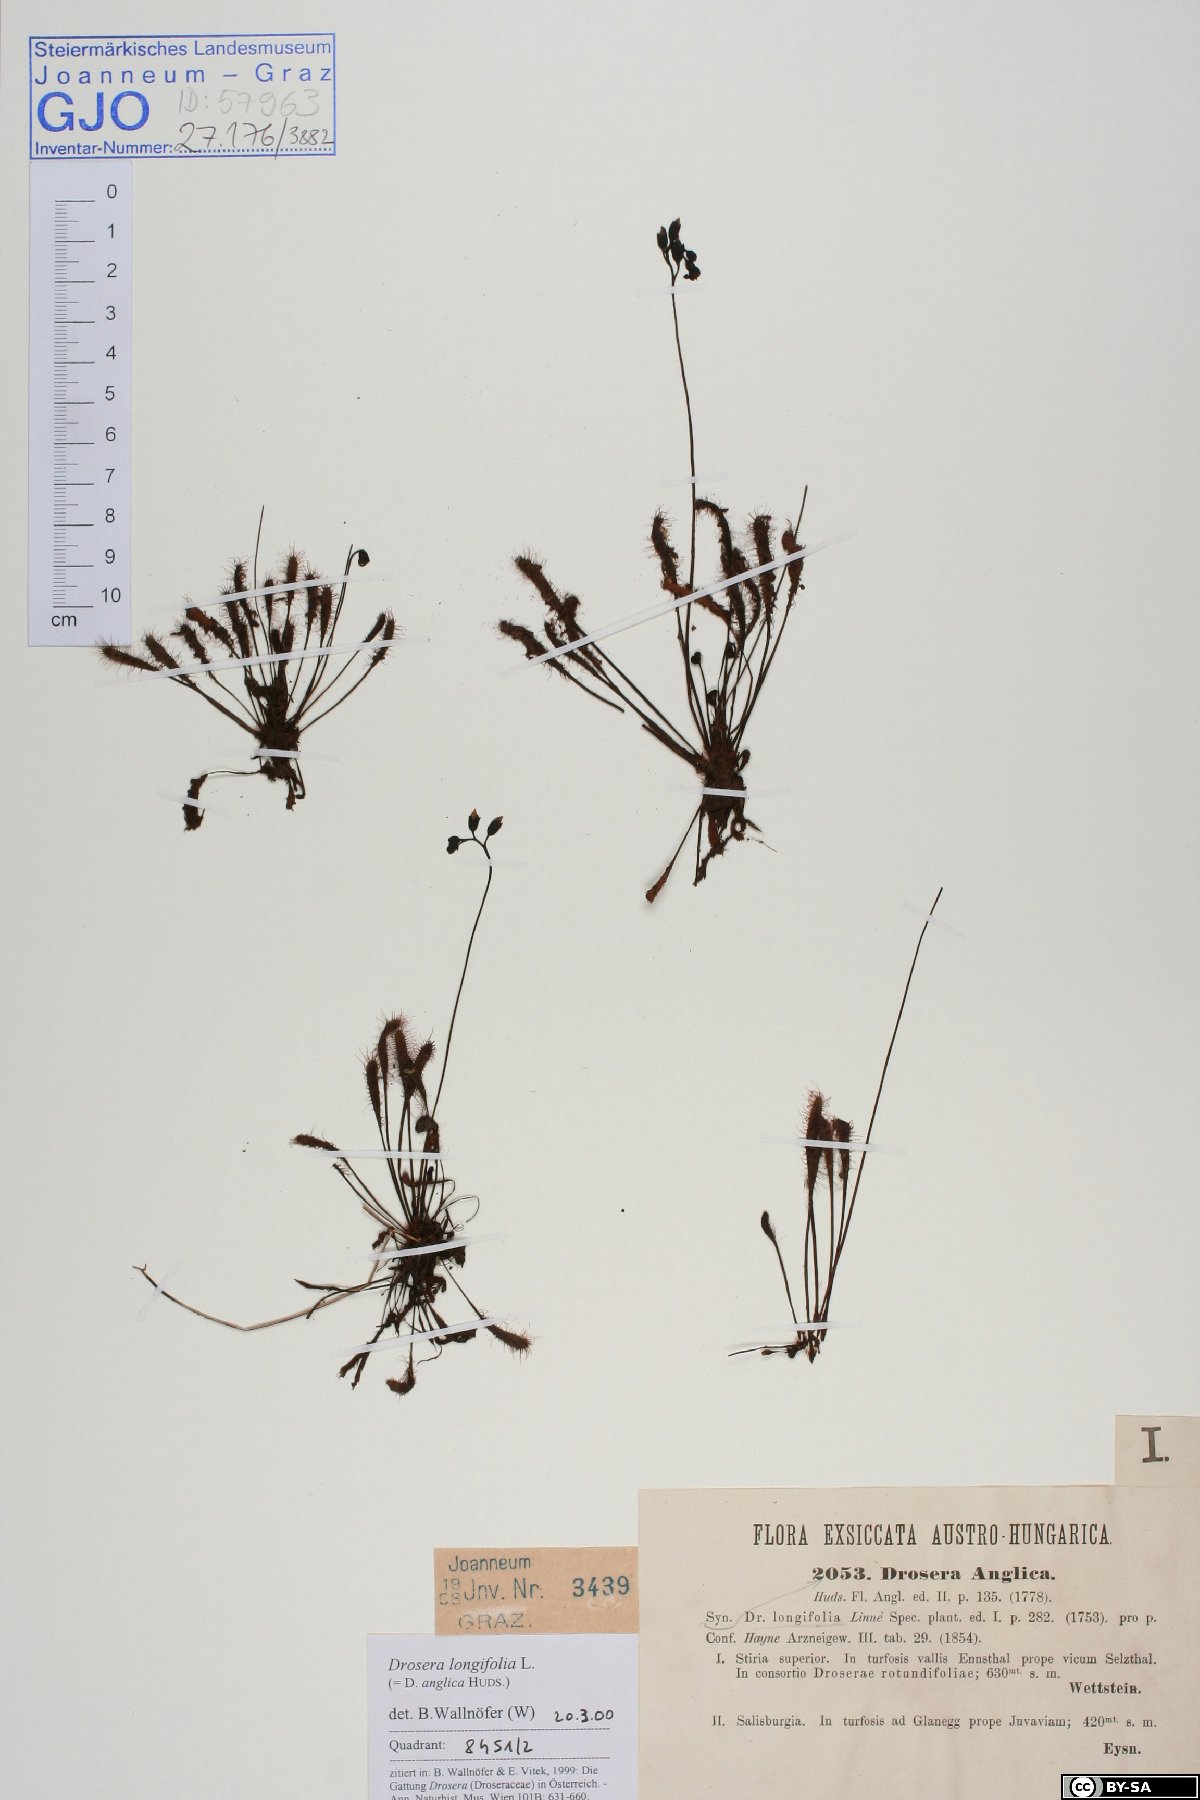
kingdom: Plantae
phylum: Tracheophyta
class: Magnoliopsida
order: Caryophyllales
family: Droseraceae
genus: Drosera
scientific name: Drosera anglica
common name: Great sundew
